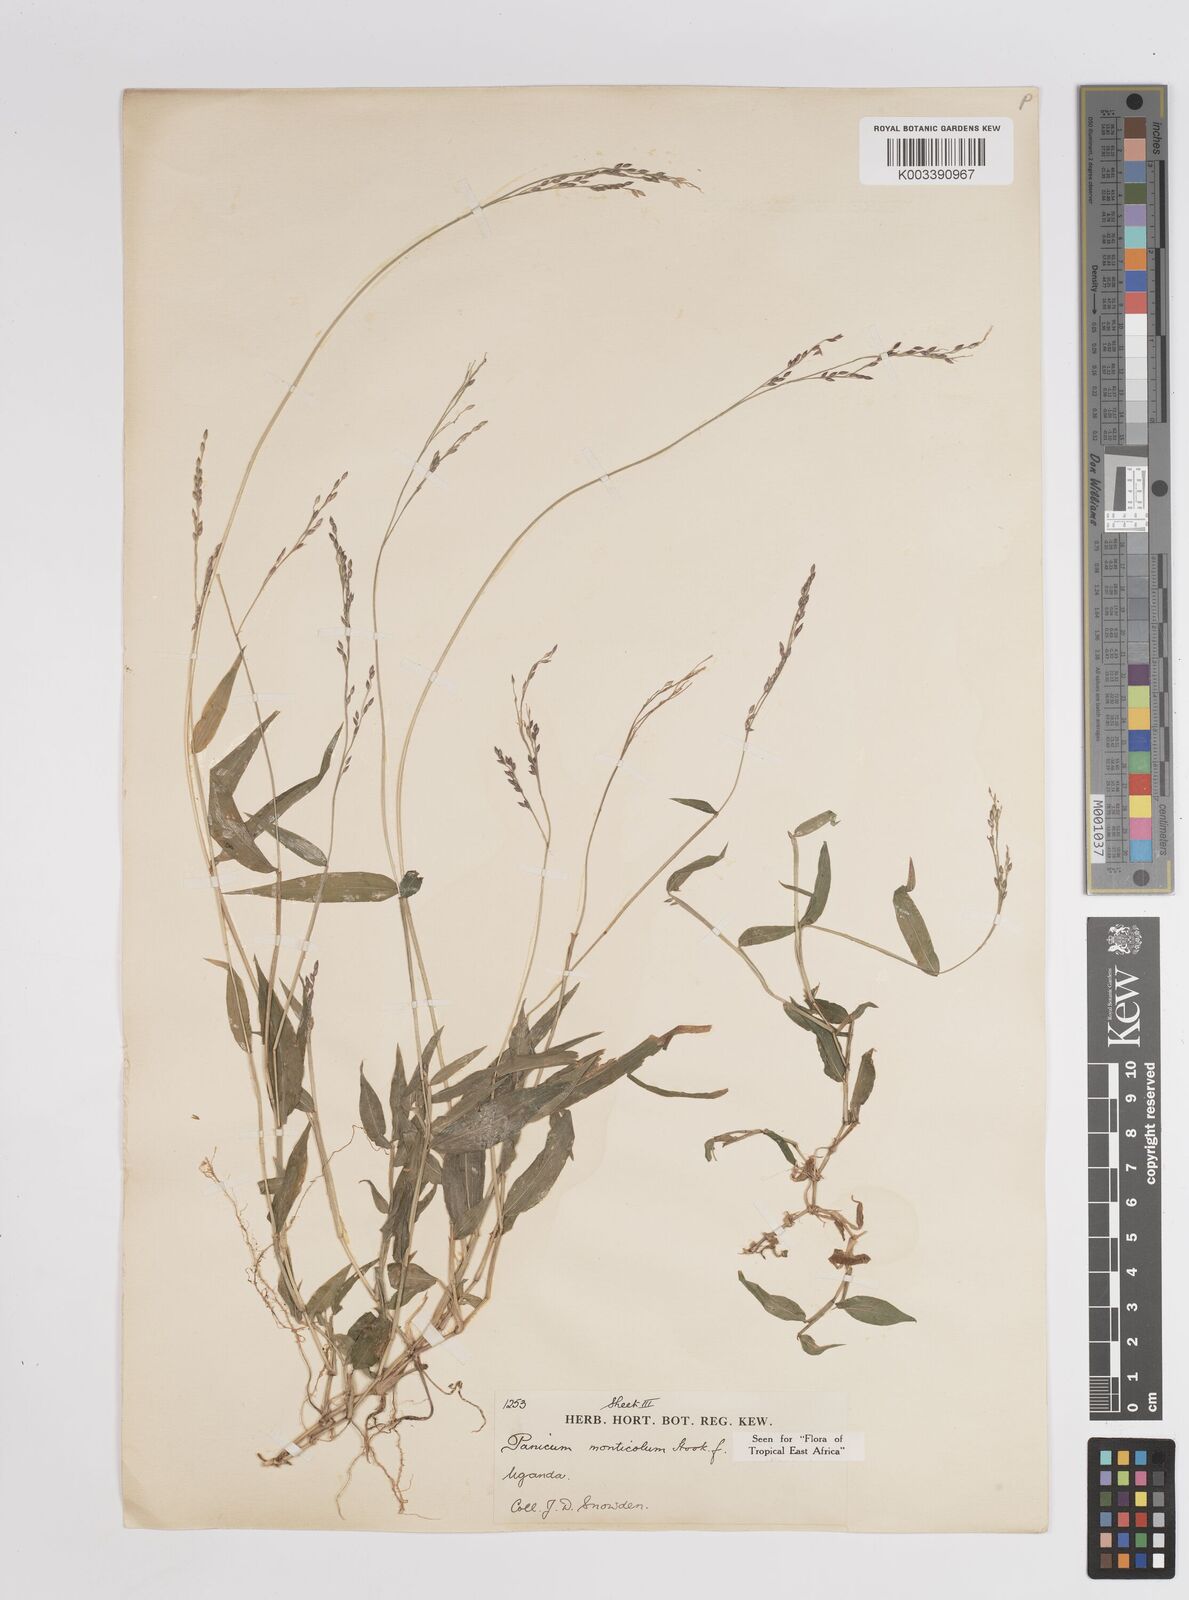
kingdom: Plantae
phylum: Tracheophyta
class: Liliopsida
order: Poales
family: Poaceae
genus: Panicum
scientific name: Panicum
